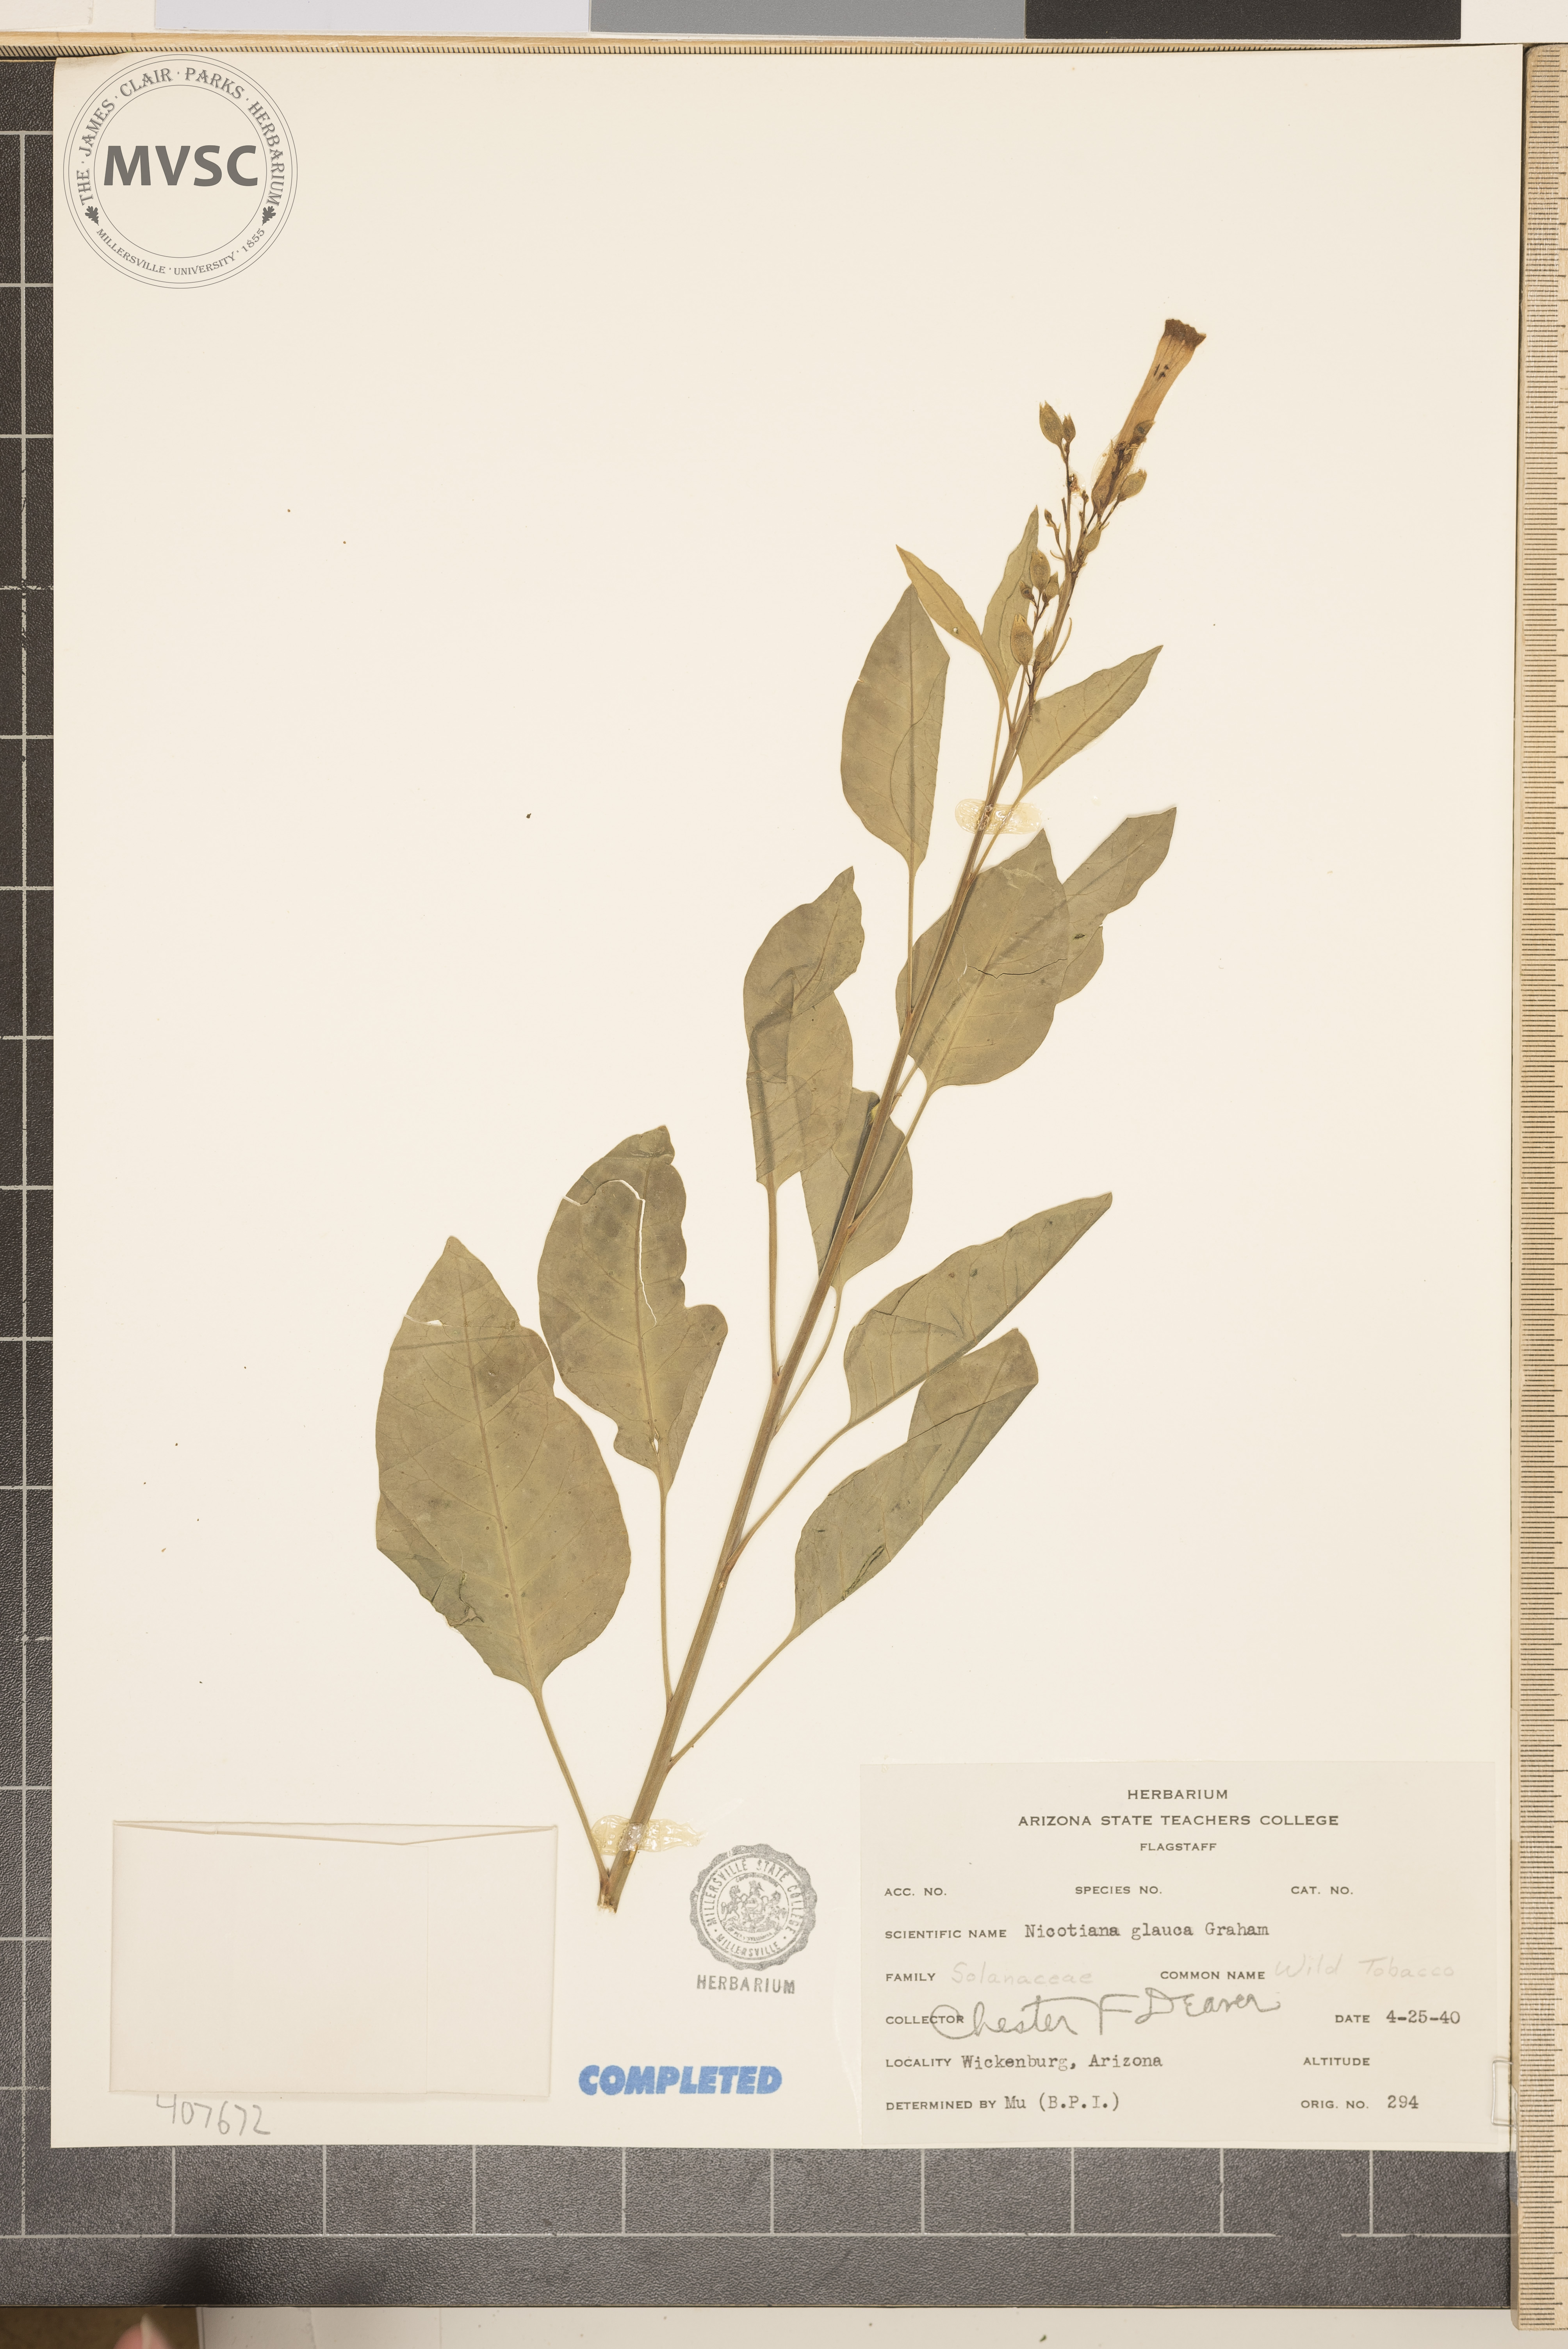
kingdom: Plantae
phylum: Tracheophyta
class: Magnoliopsida
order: Solanales
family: Solanaceae
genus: Nicotiana
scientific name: Nicotiana glauca
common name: Tree tobacco
